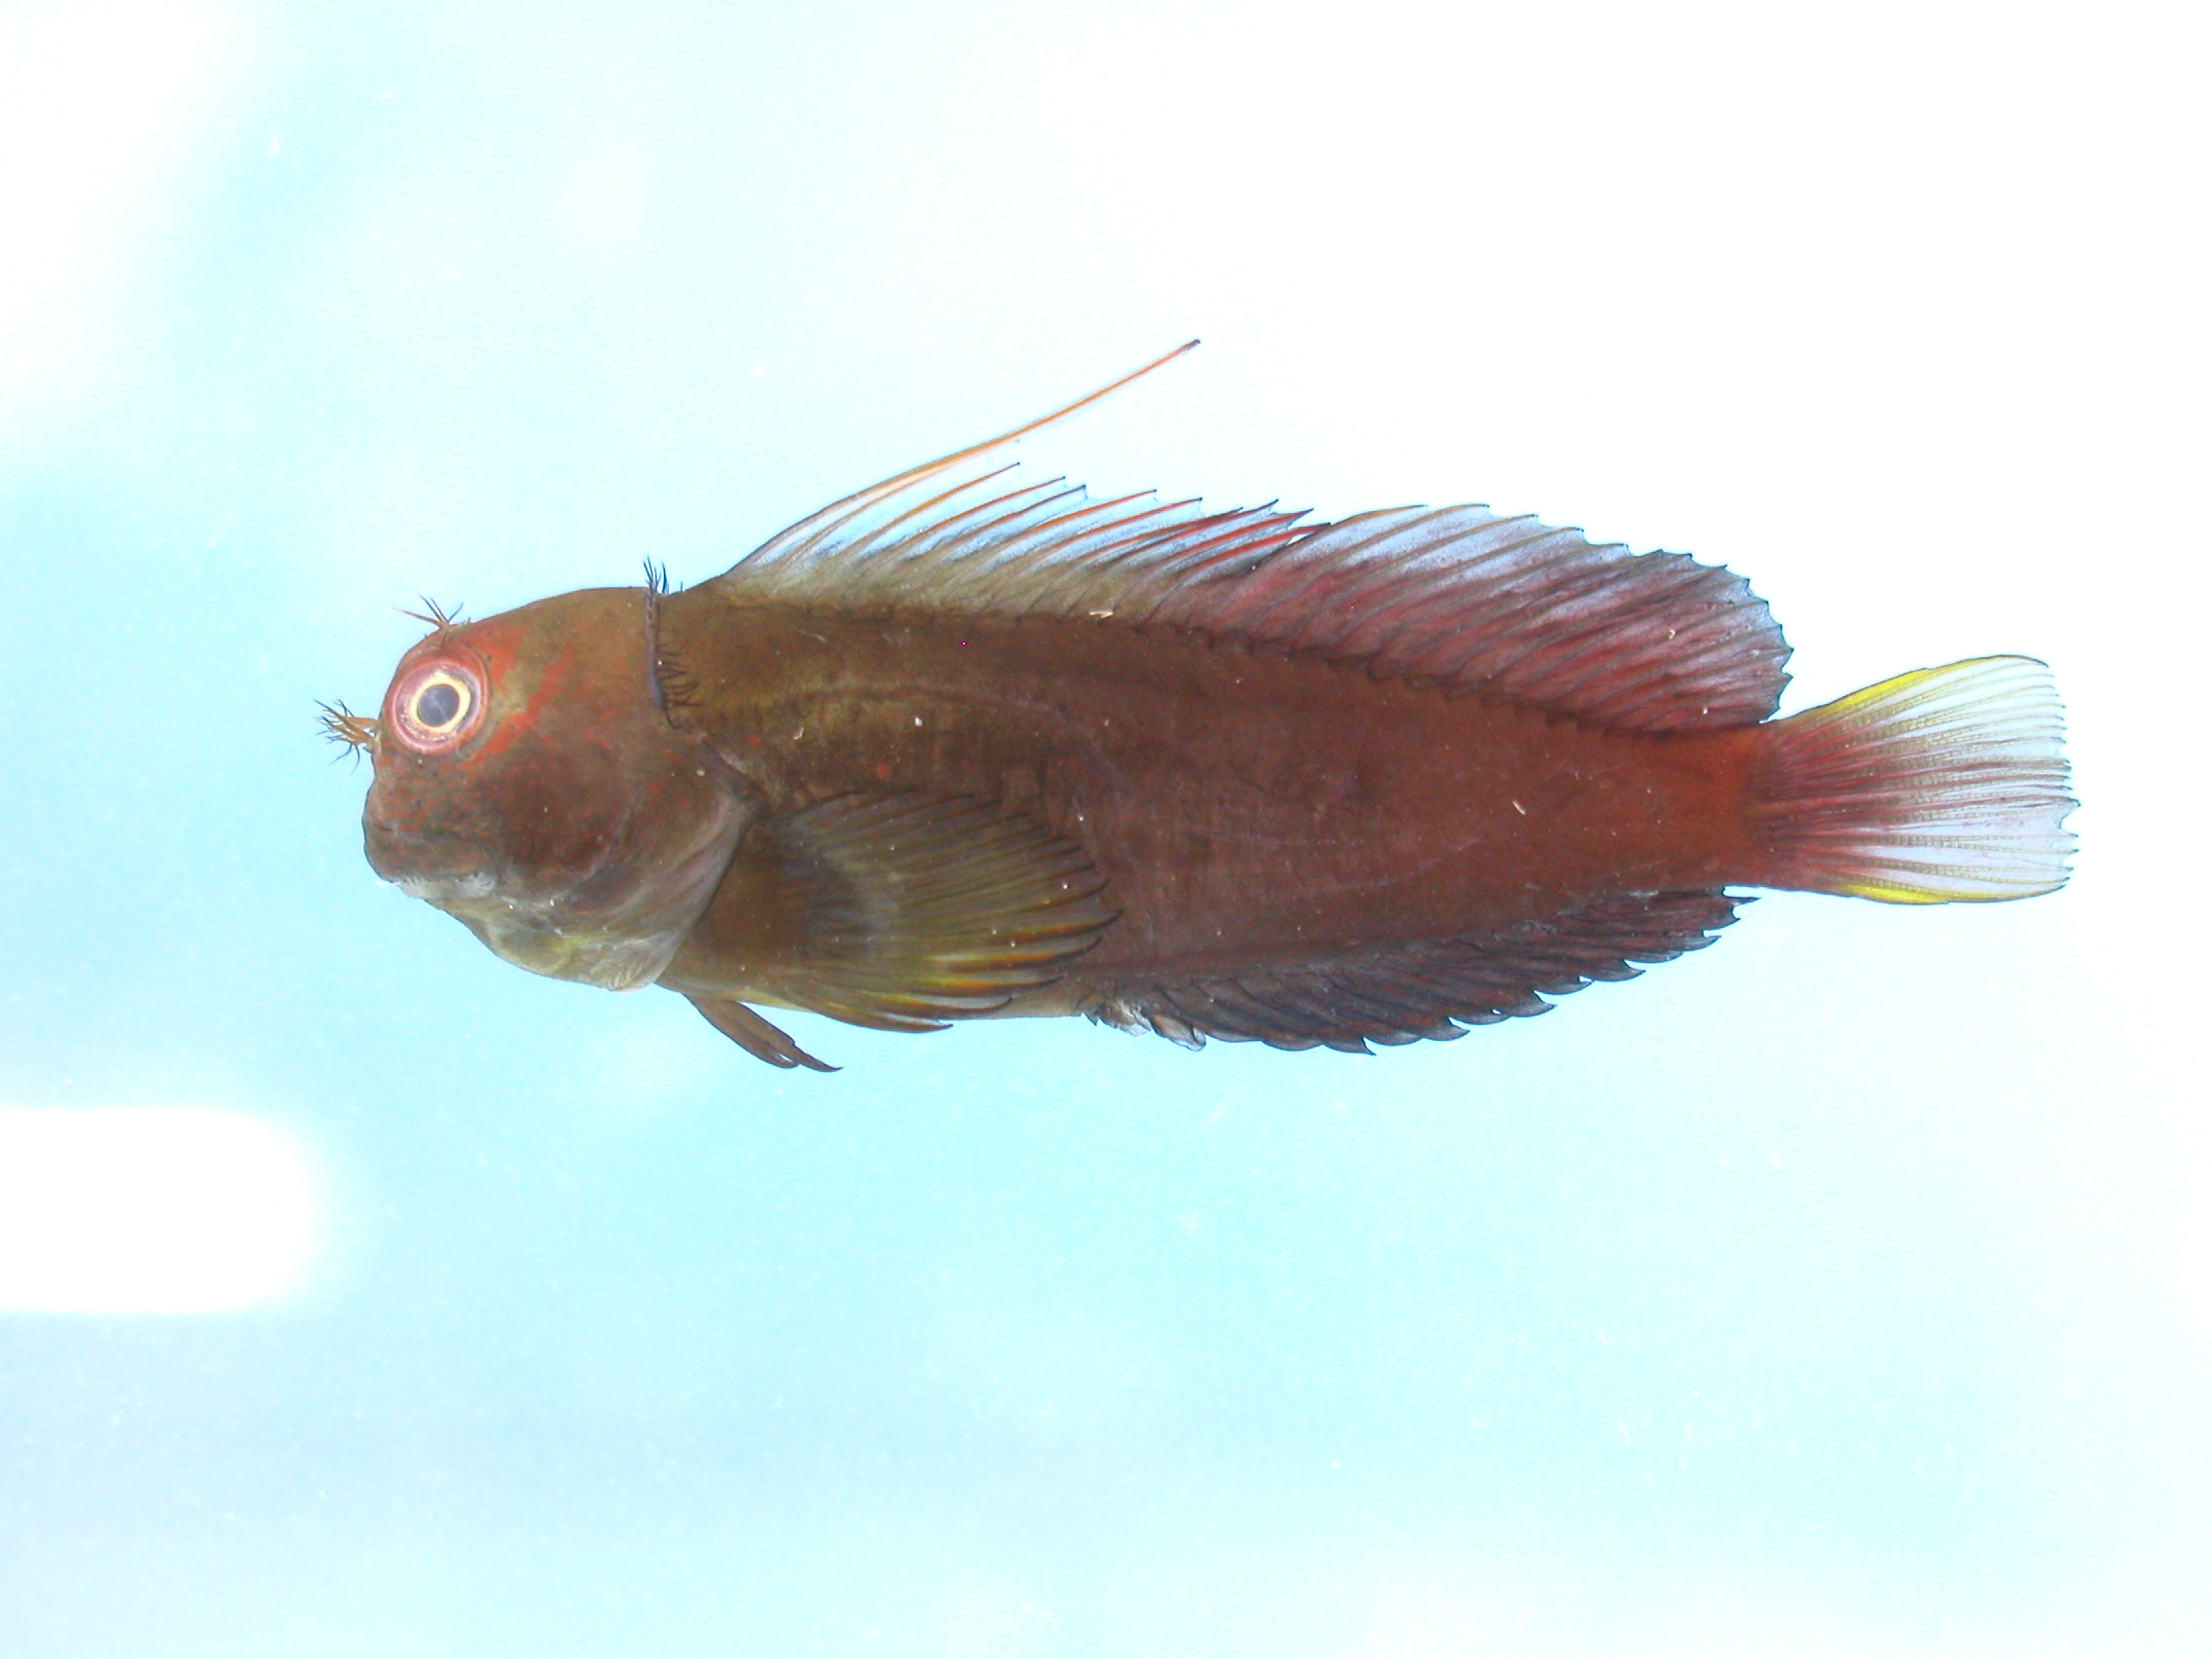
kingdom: Animalia
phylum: Chordata
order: Perciformes
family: Blenniidae
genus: Cirripectes
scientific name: Cirripectes filamentosus
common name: Filamentous blenny
